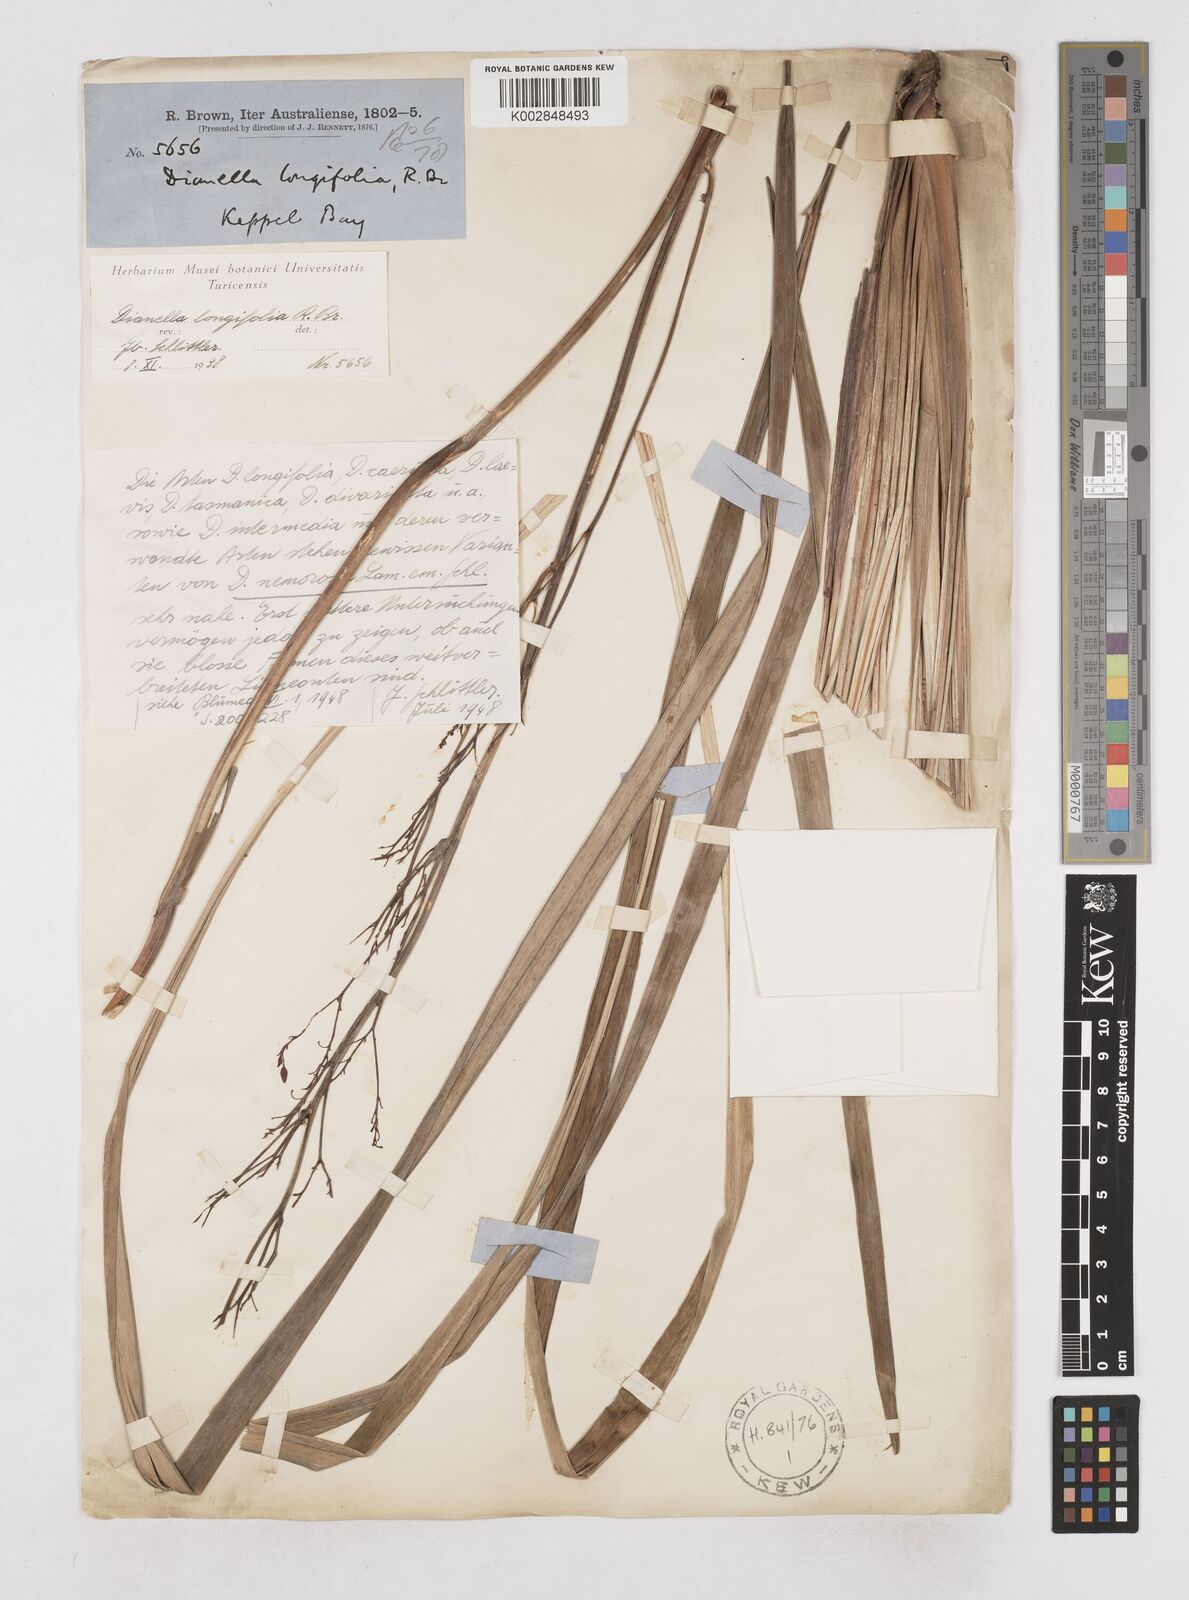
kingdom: Plantae
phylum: Tracheophyta
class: Liliopsida
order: Asparagales
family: Asphodelaceae
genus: Dianella
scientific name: Dianella longifolia
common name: Blue flax-lily
